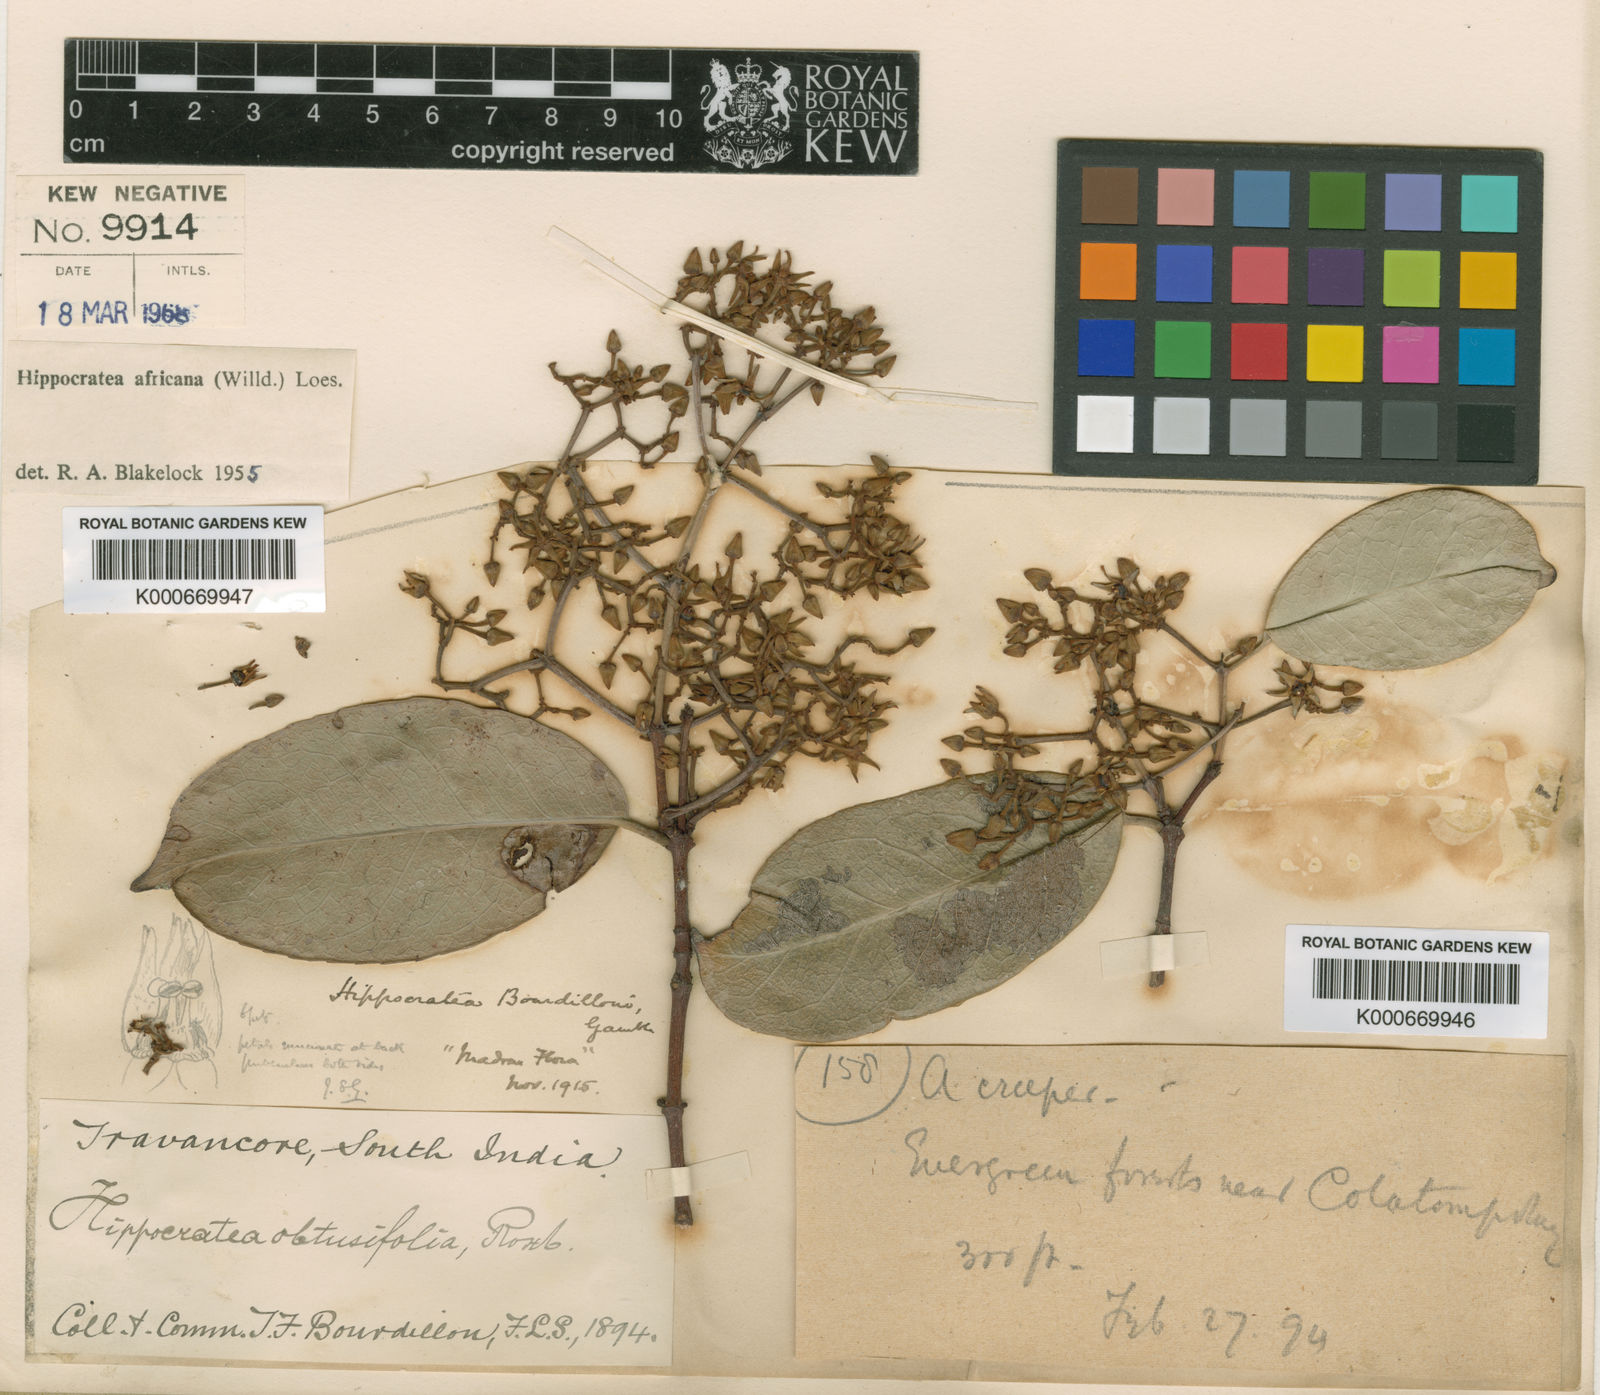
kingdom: Plantae
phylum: Tracheophyta
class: Magnoliopsida
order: Celastrales
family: Celastraceae
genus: Loeseneriella
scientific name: Loeseneriella
